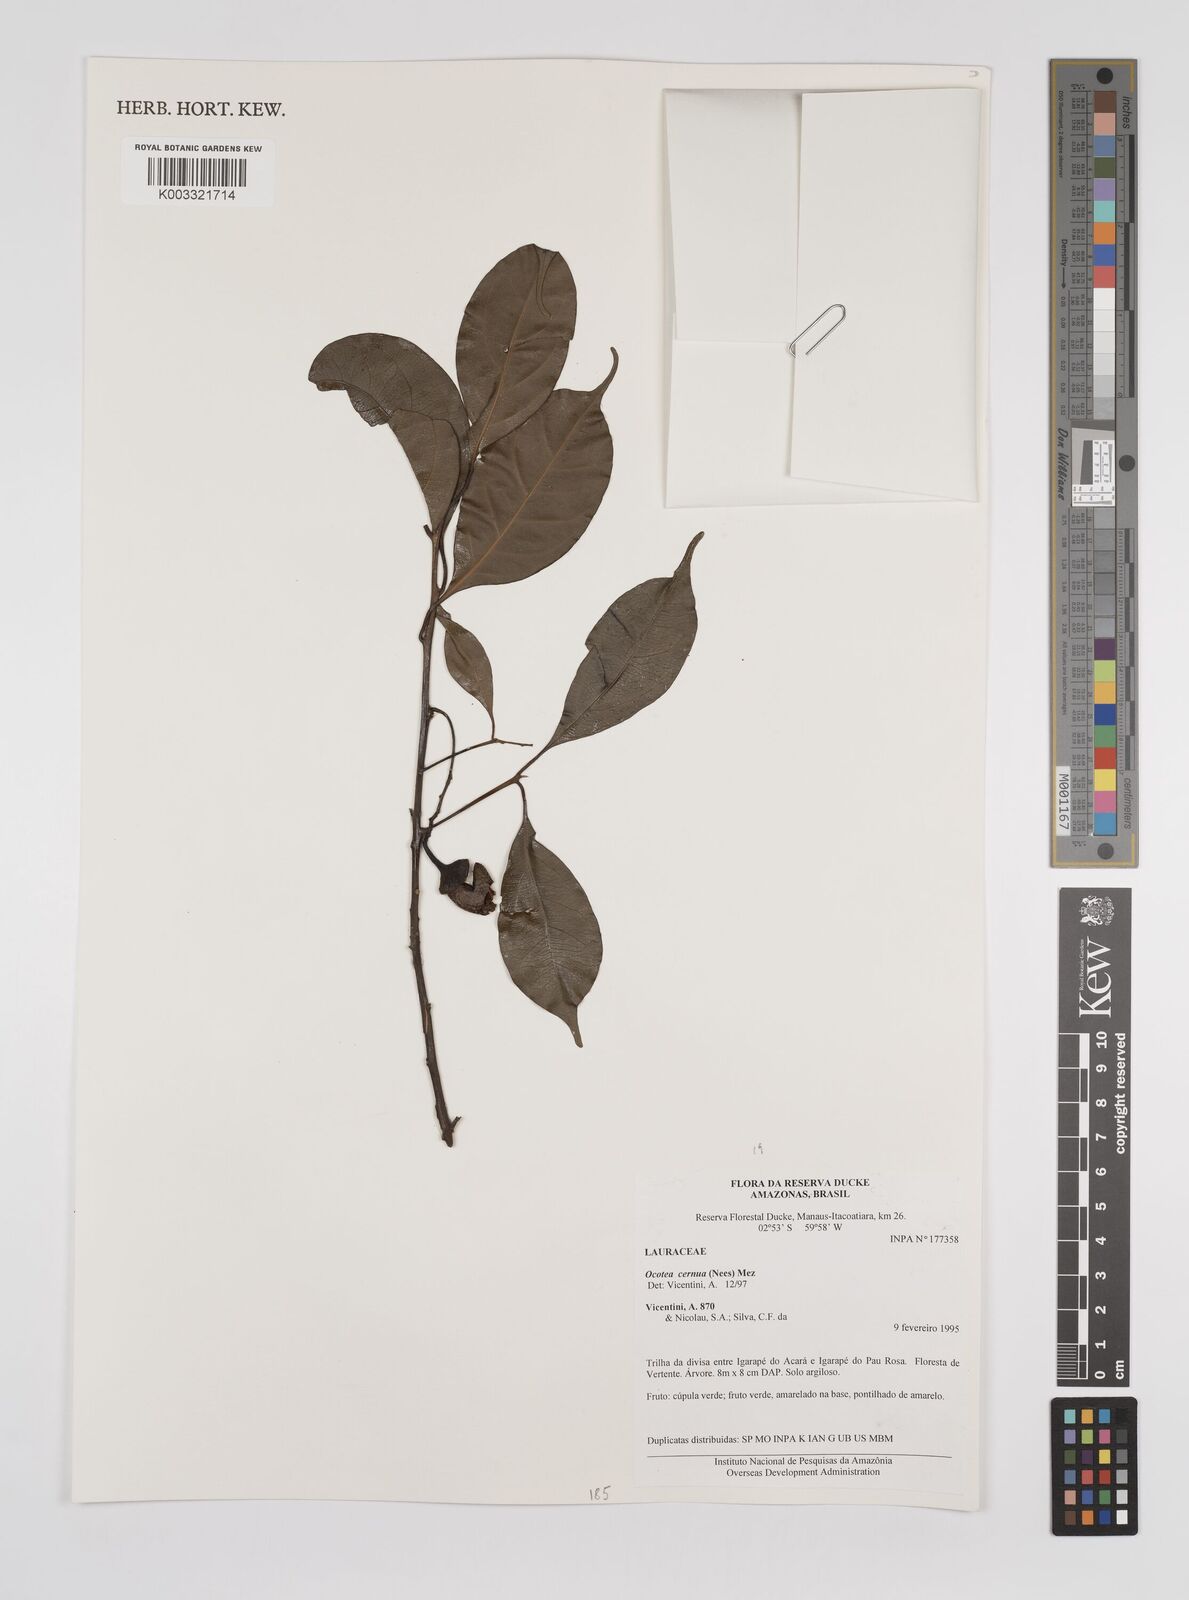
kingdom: Plantae
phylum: Tracheophyta
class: Magnoliopsida
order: Laurales
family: Lauraceae
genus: Ocotea
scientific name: Ocotea leptobotra
